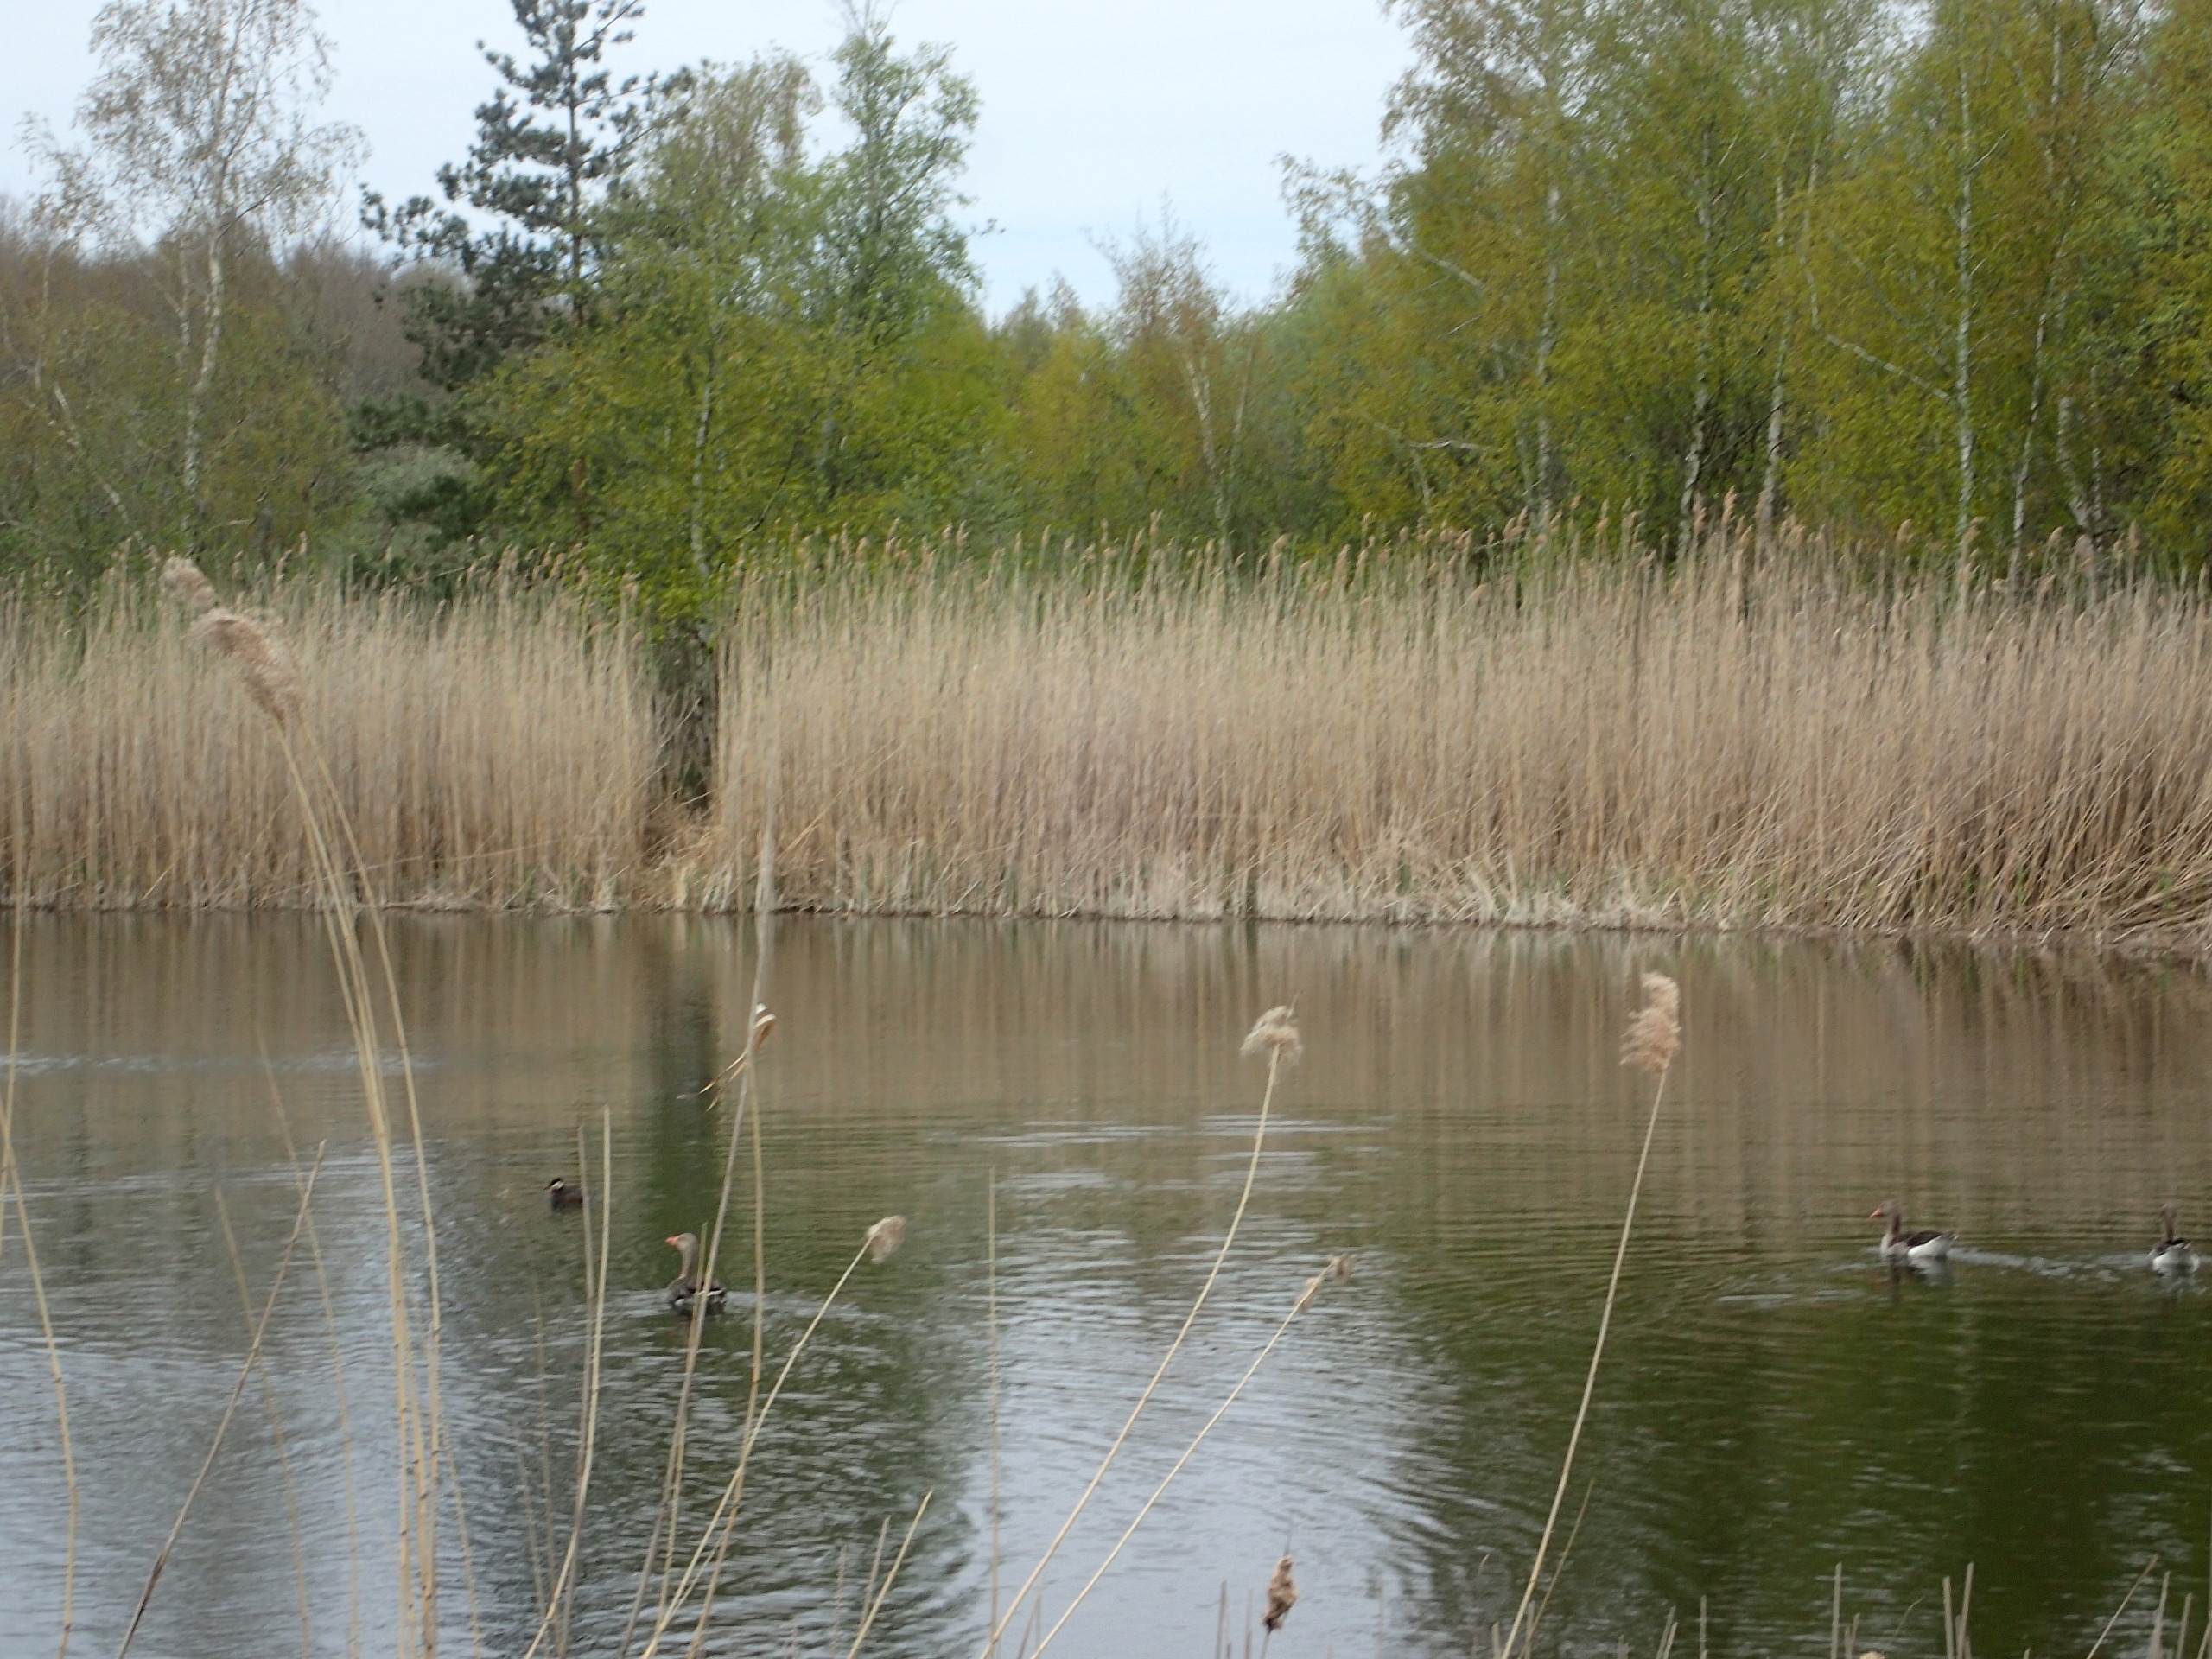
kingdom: Animalia
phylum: Chordata
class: Aves
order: Podicipediformes
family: Podicipedidae
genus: Podiceps
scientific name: Podiceps grisegena
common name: Gråstrubet lappedykker
